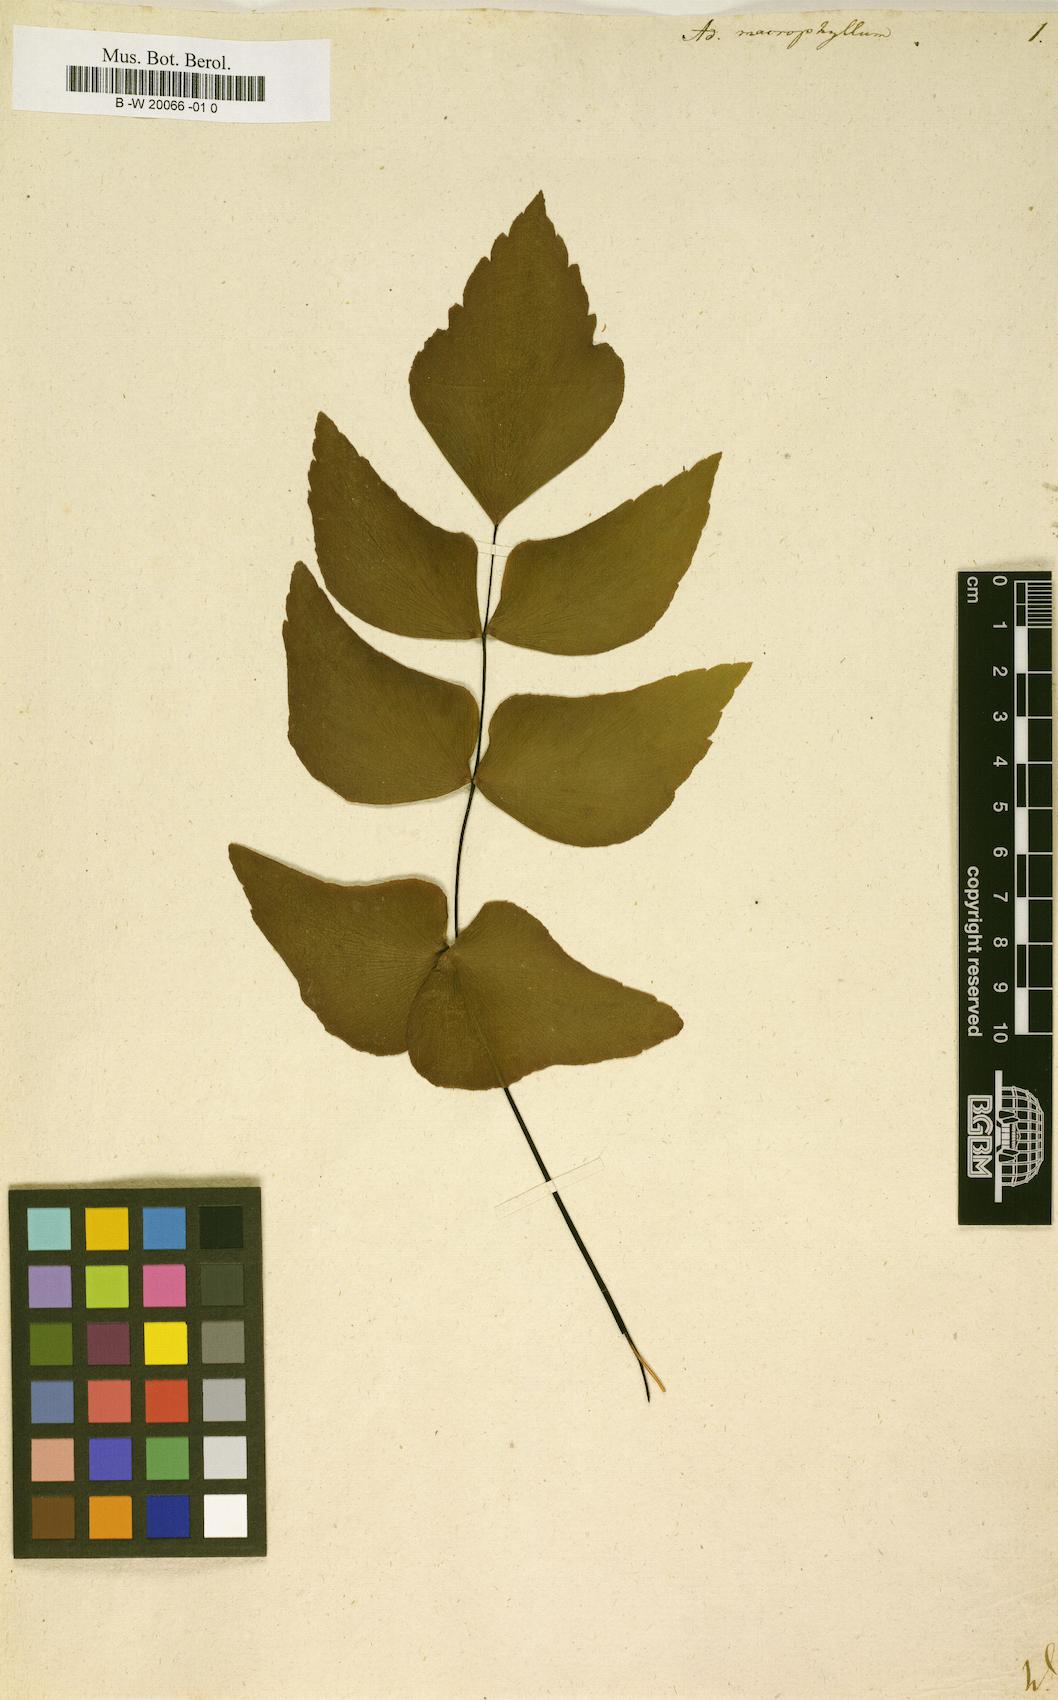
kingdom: Plantae
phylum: Tracheophyta
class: Polypodiopsida
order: Polypodiales
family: Pteridaceae
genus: Adiantum
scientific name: Adiantum macrophyllum
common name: Largeleaf maidenhair
